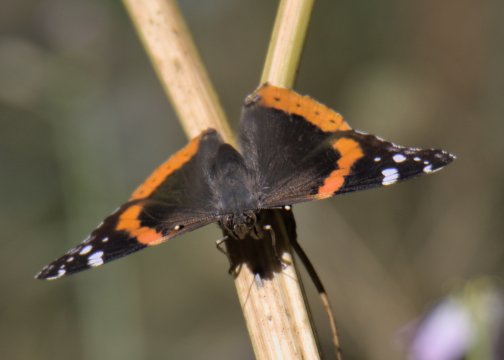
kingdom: Animalia
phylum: Arthropoda
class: Insecta
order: Lepidoptera
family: Nymphalidae
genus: Vanessa
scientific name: Vanessa atalanta
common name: Red Admiral
